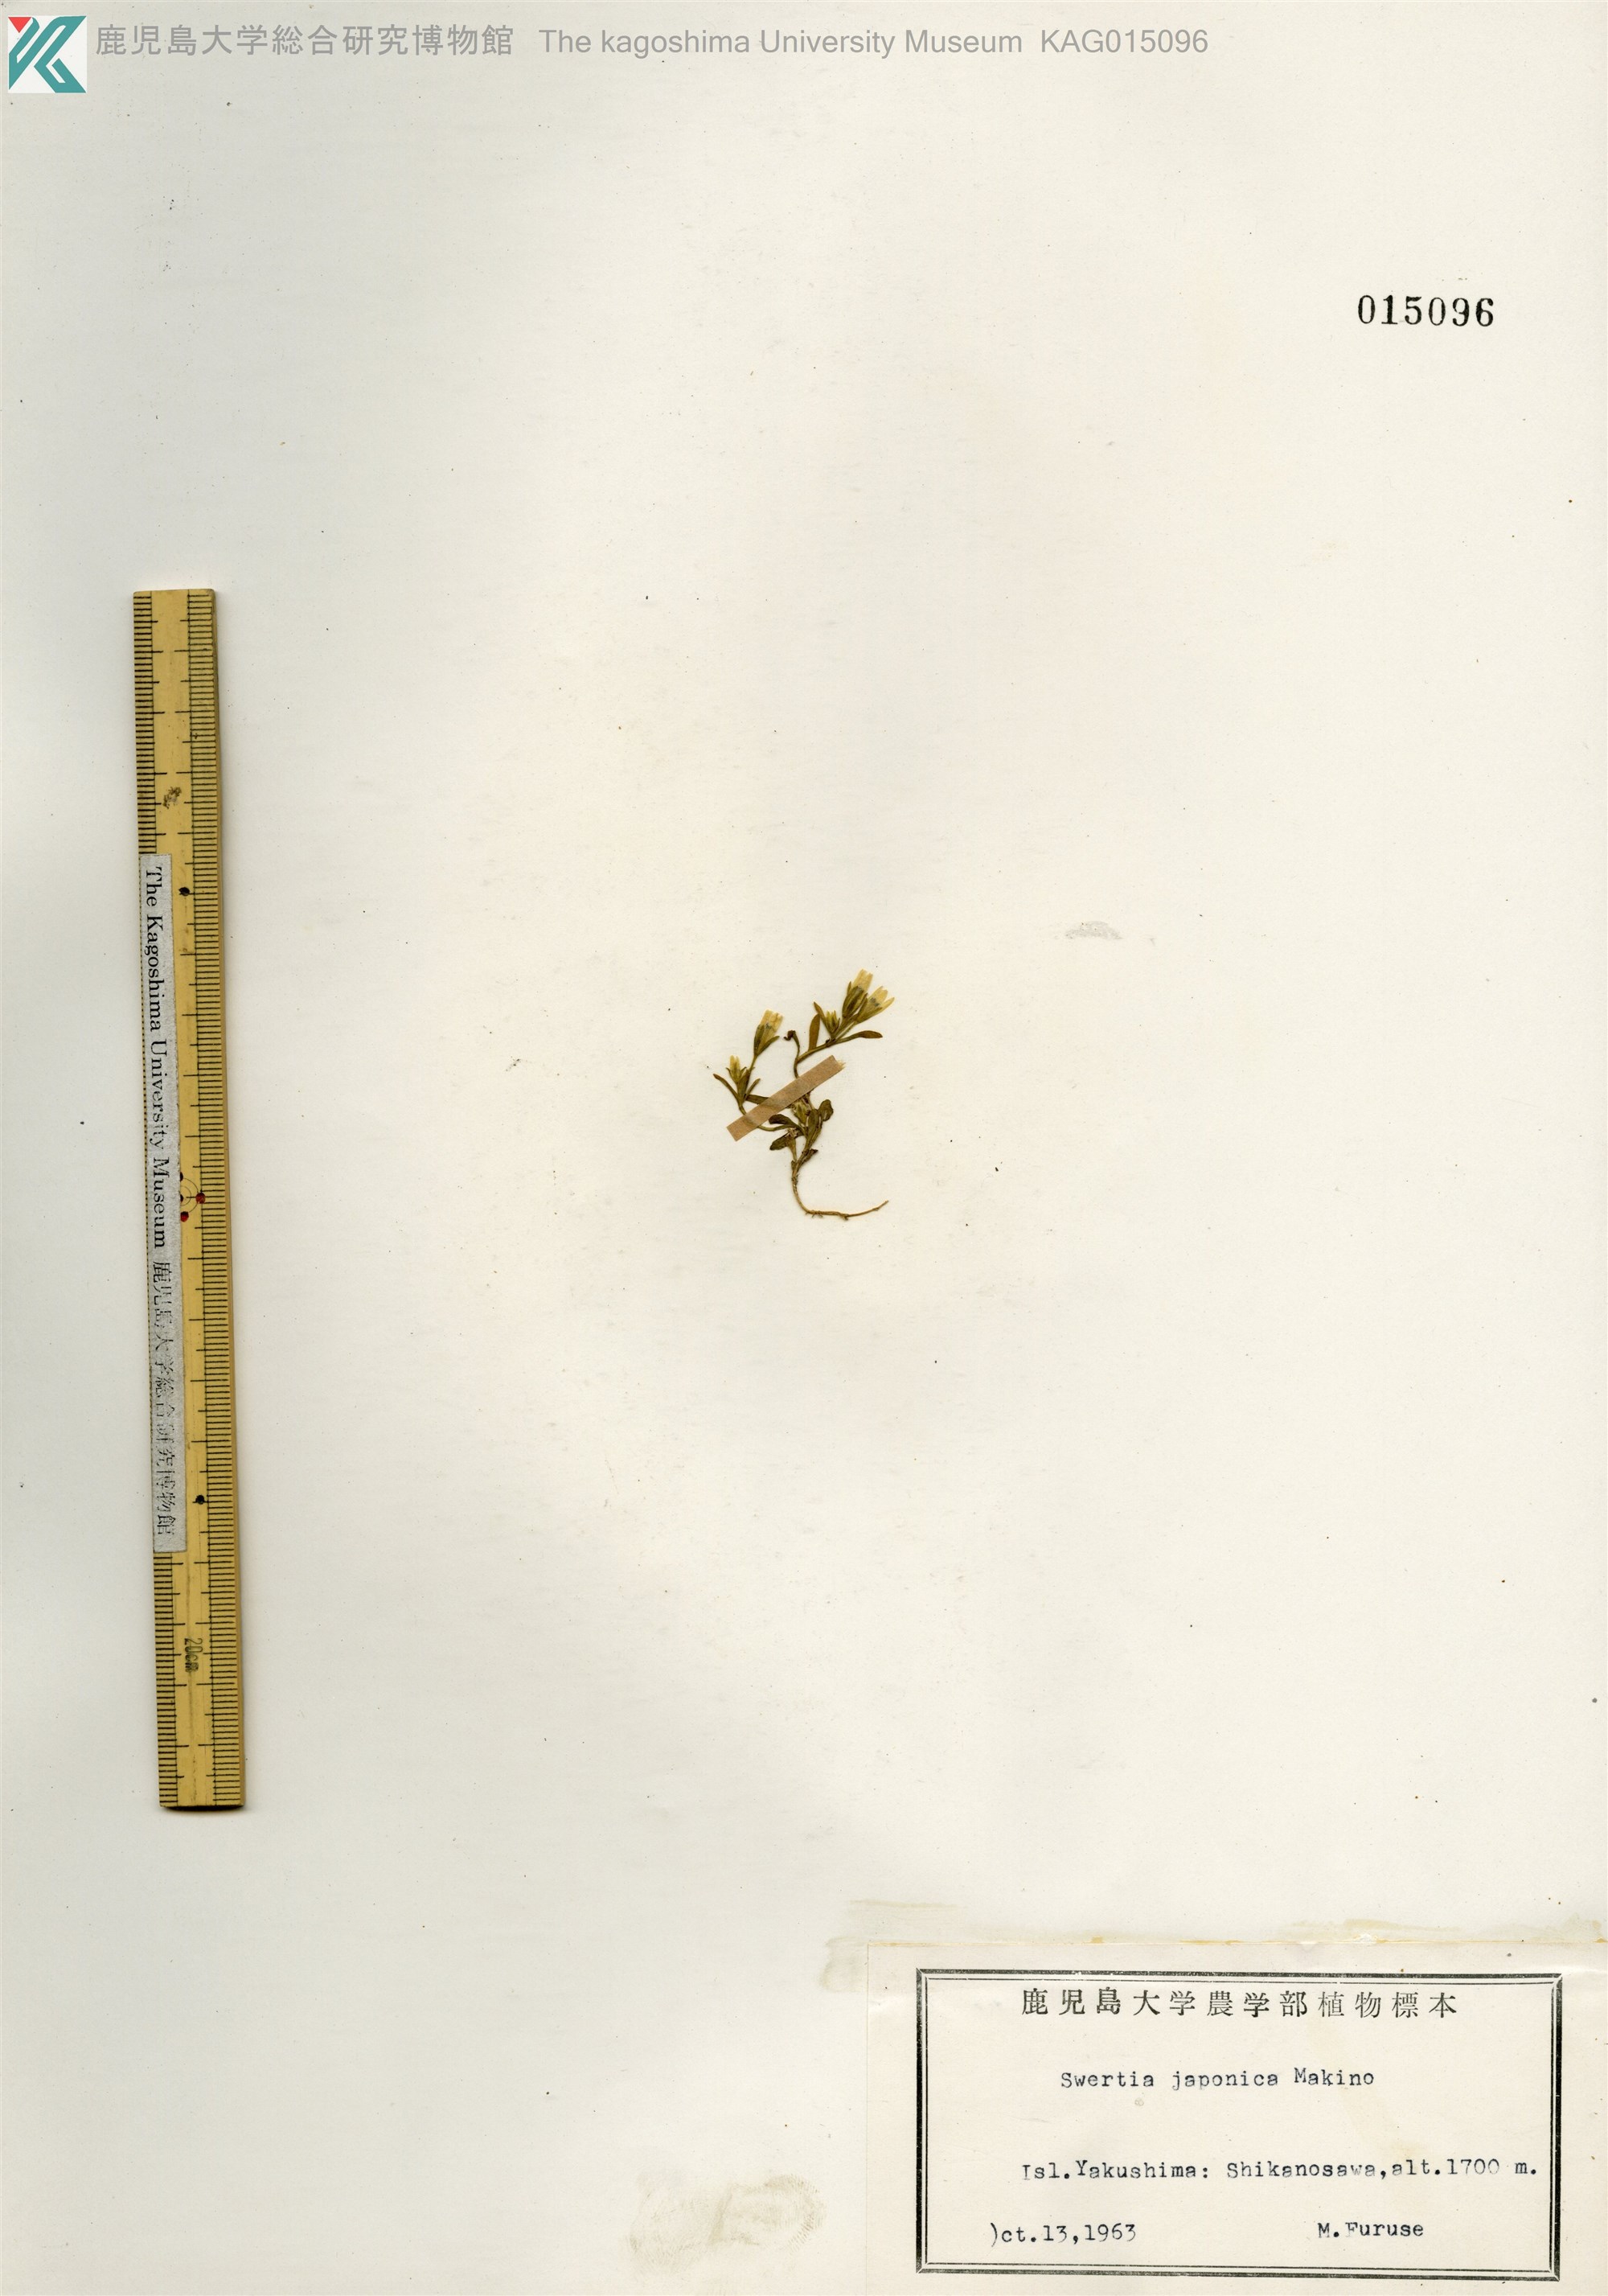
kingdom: Plantae
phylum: Tracheophyta
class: Magnoliopsida
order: Gentianales
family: Gentianaceae
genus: Swertia
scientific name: Swertia japonica
